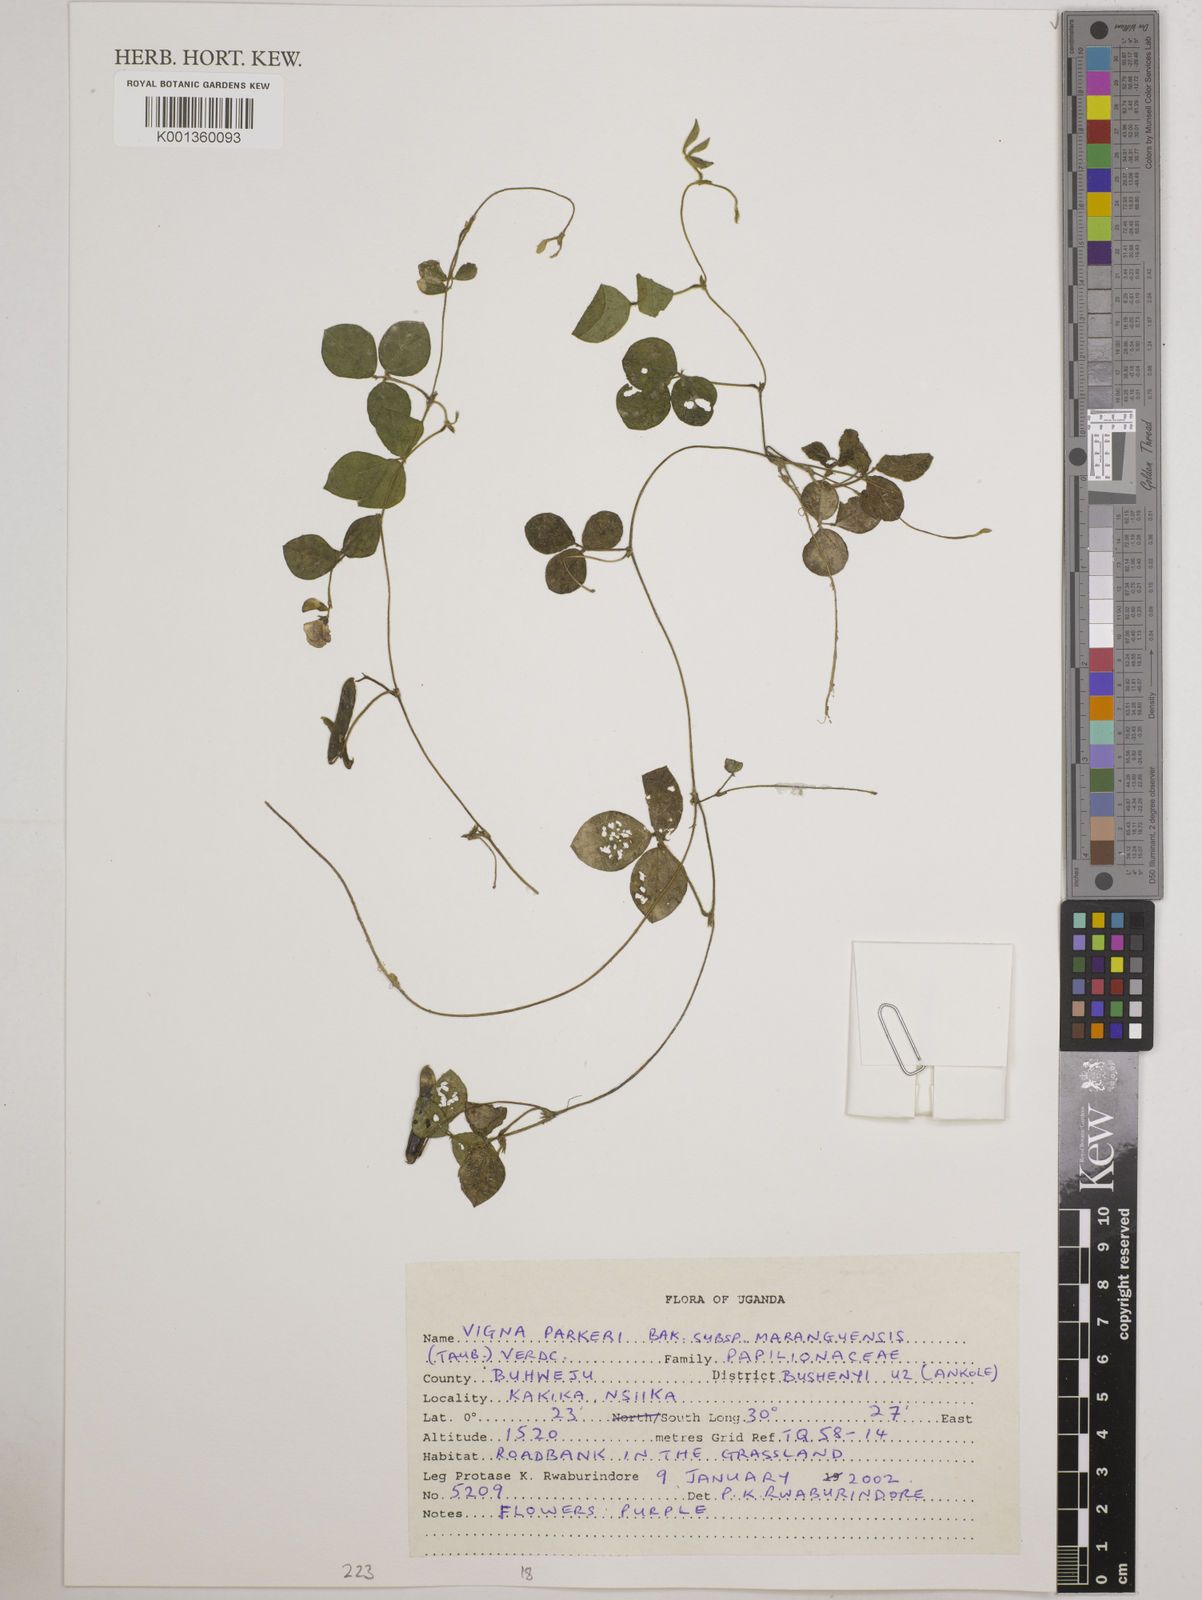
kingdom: Plantae
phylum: Tracheophyta
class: Magnoliopsida
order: Fabales
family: Fabaceae
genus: Vigna
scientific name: Vigna parkeri
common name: Creeping vigna
